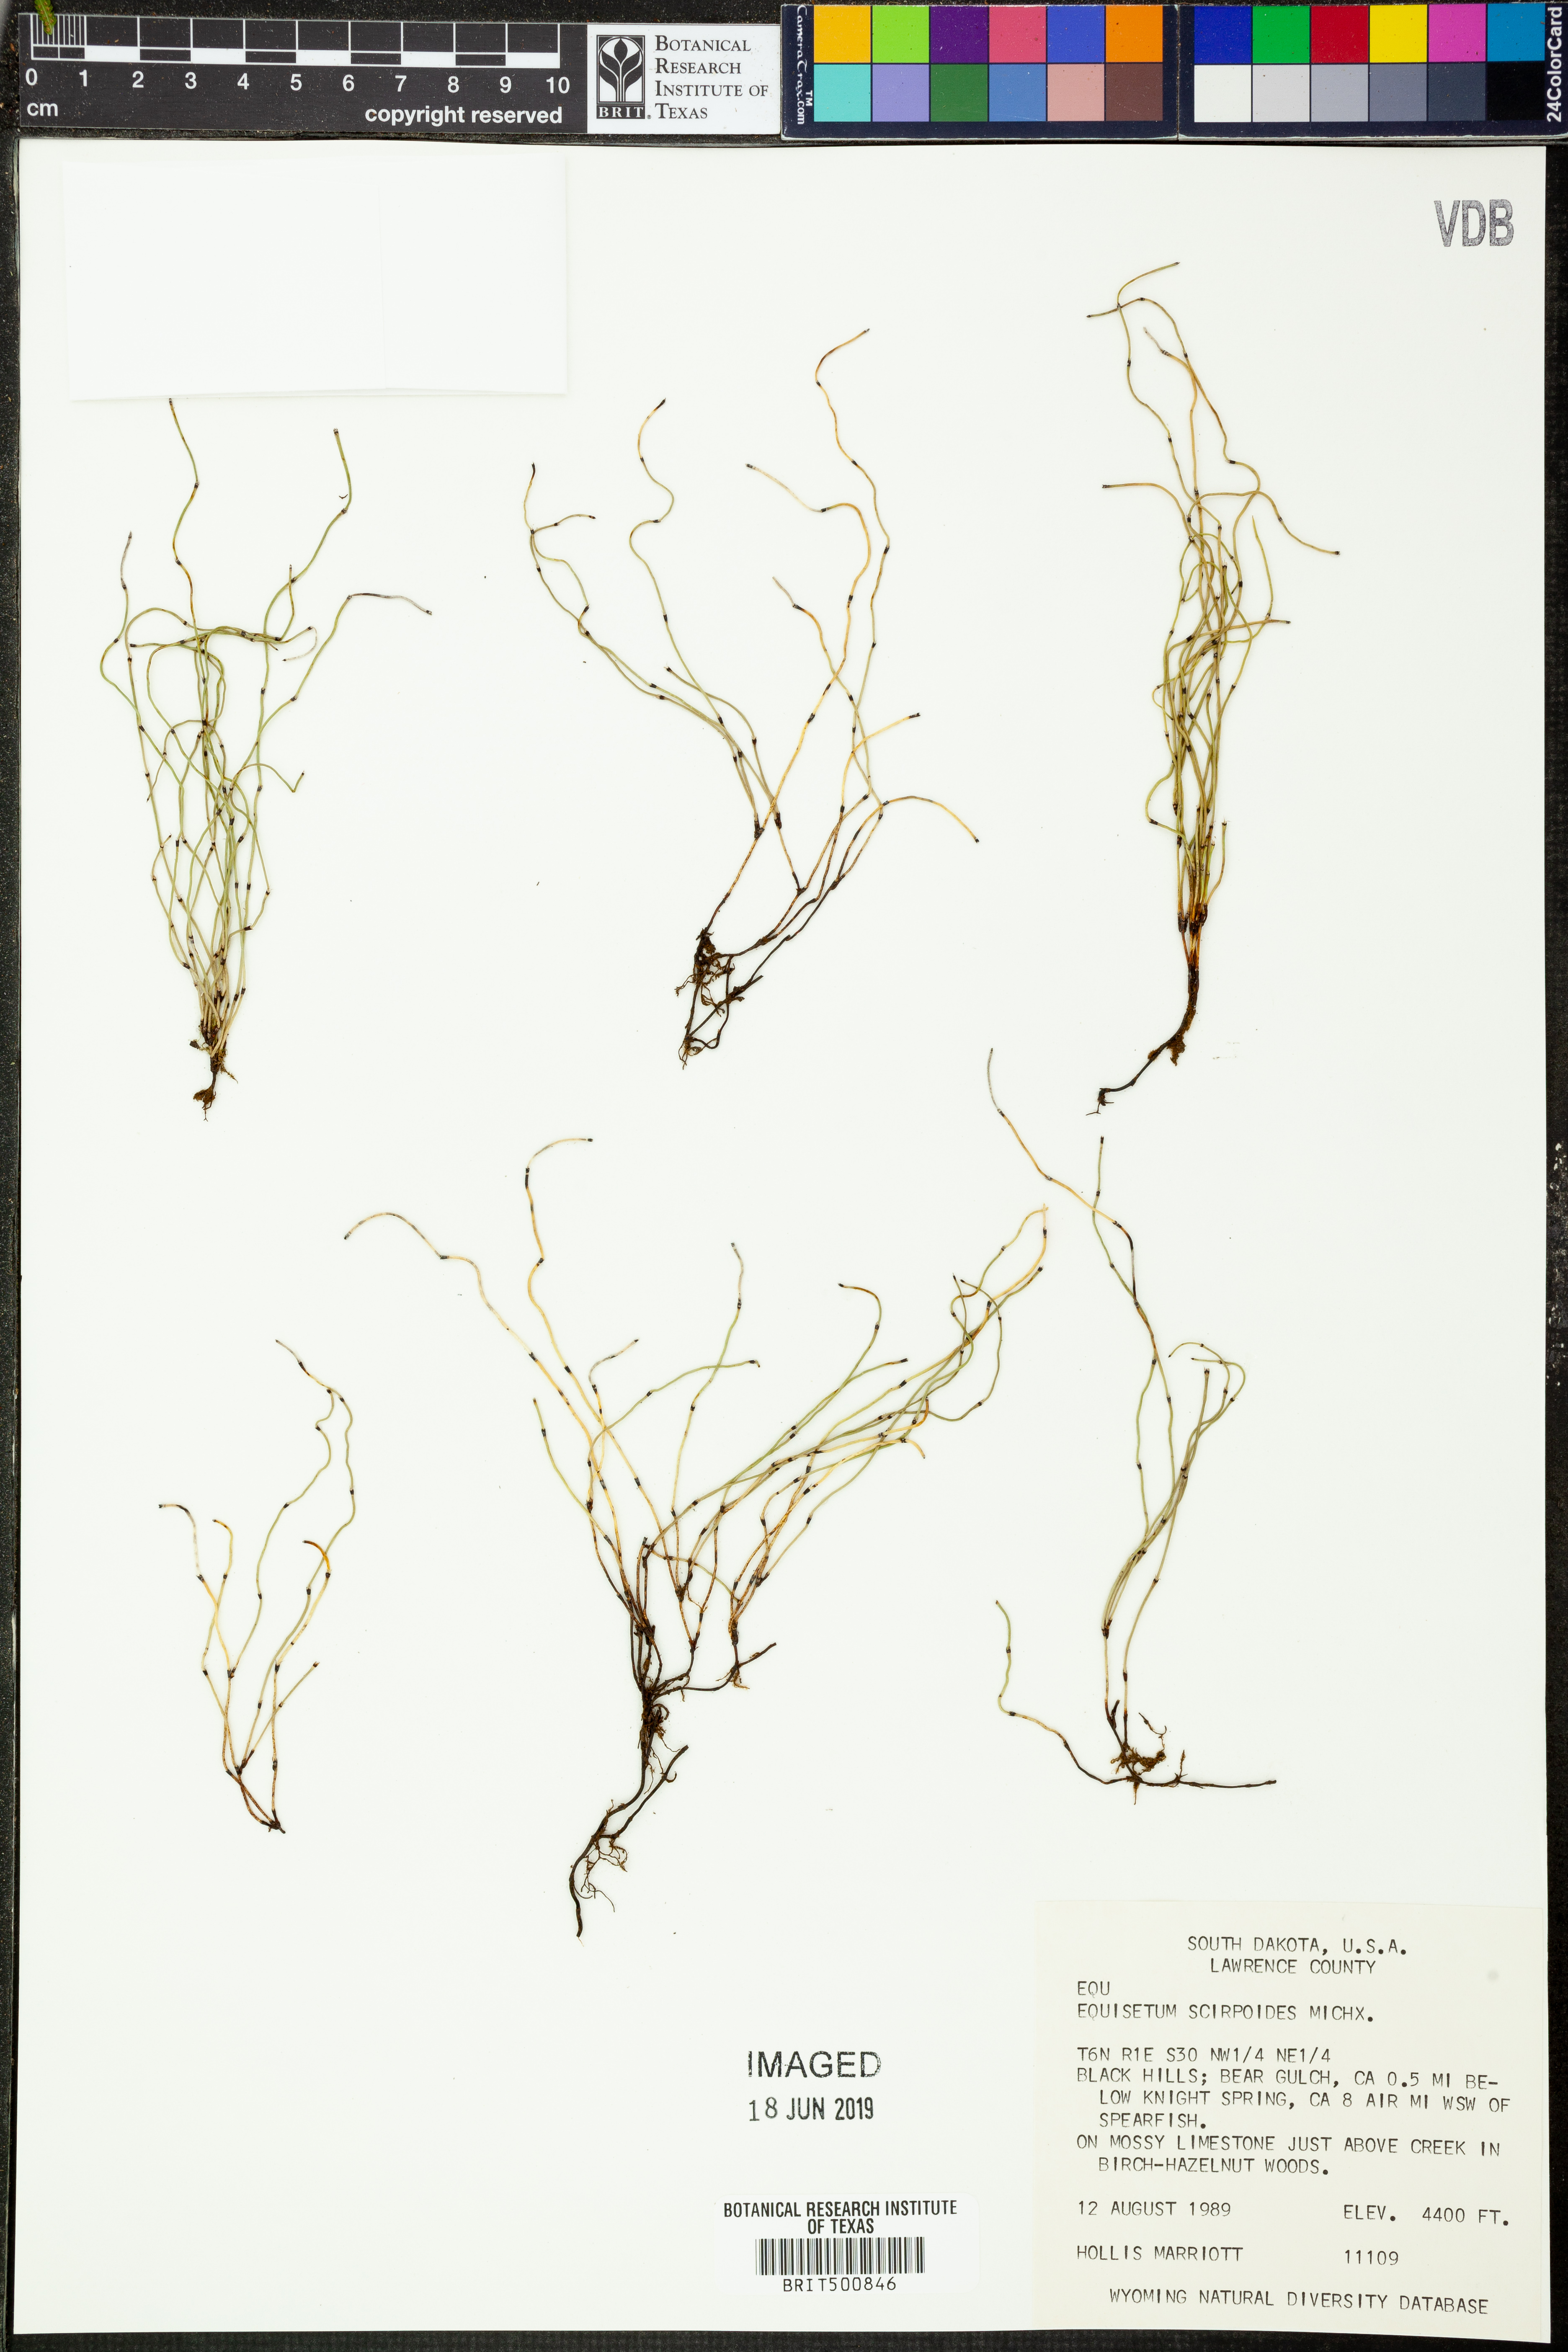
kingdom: Plantae
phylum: Tracheophyta
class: Polypodiopsida
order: Equisetales
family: Equisetaceae
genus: Equisetum
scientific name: Equisetum scirpoides
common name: Delicate horsetail
